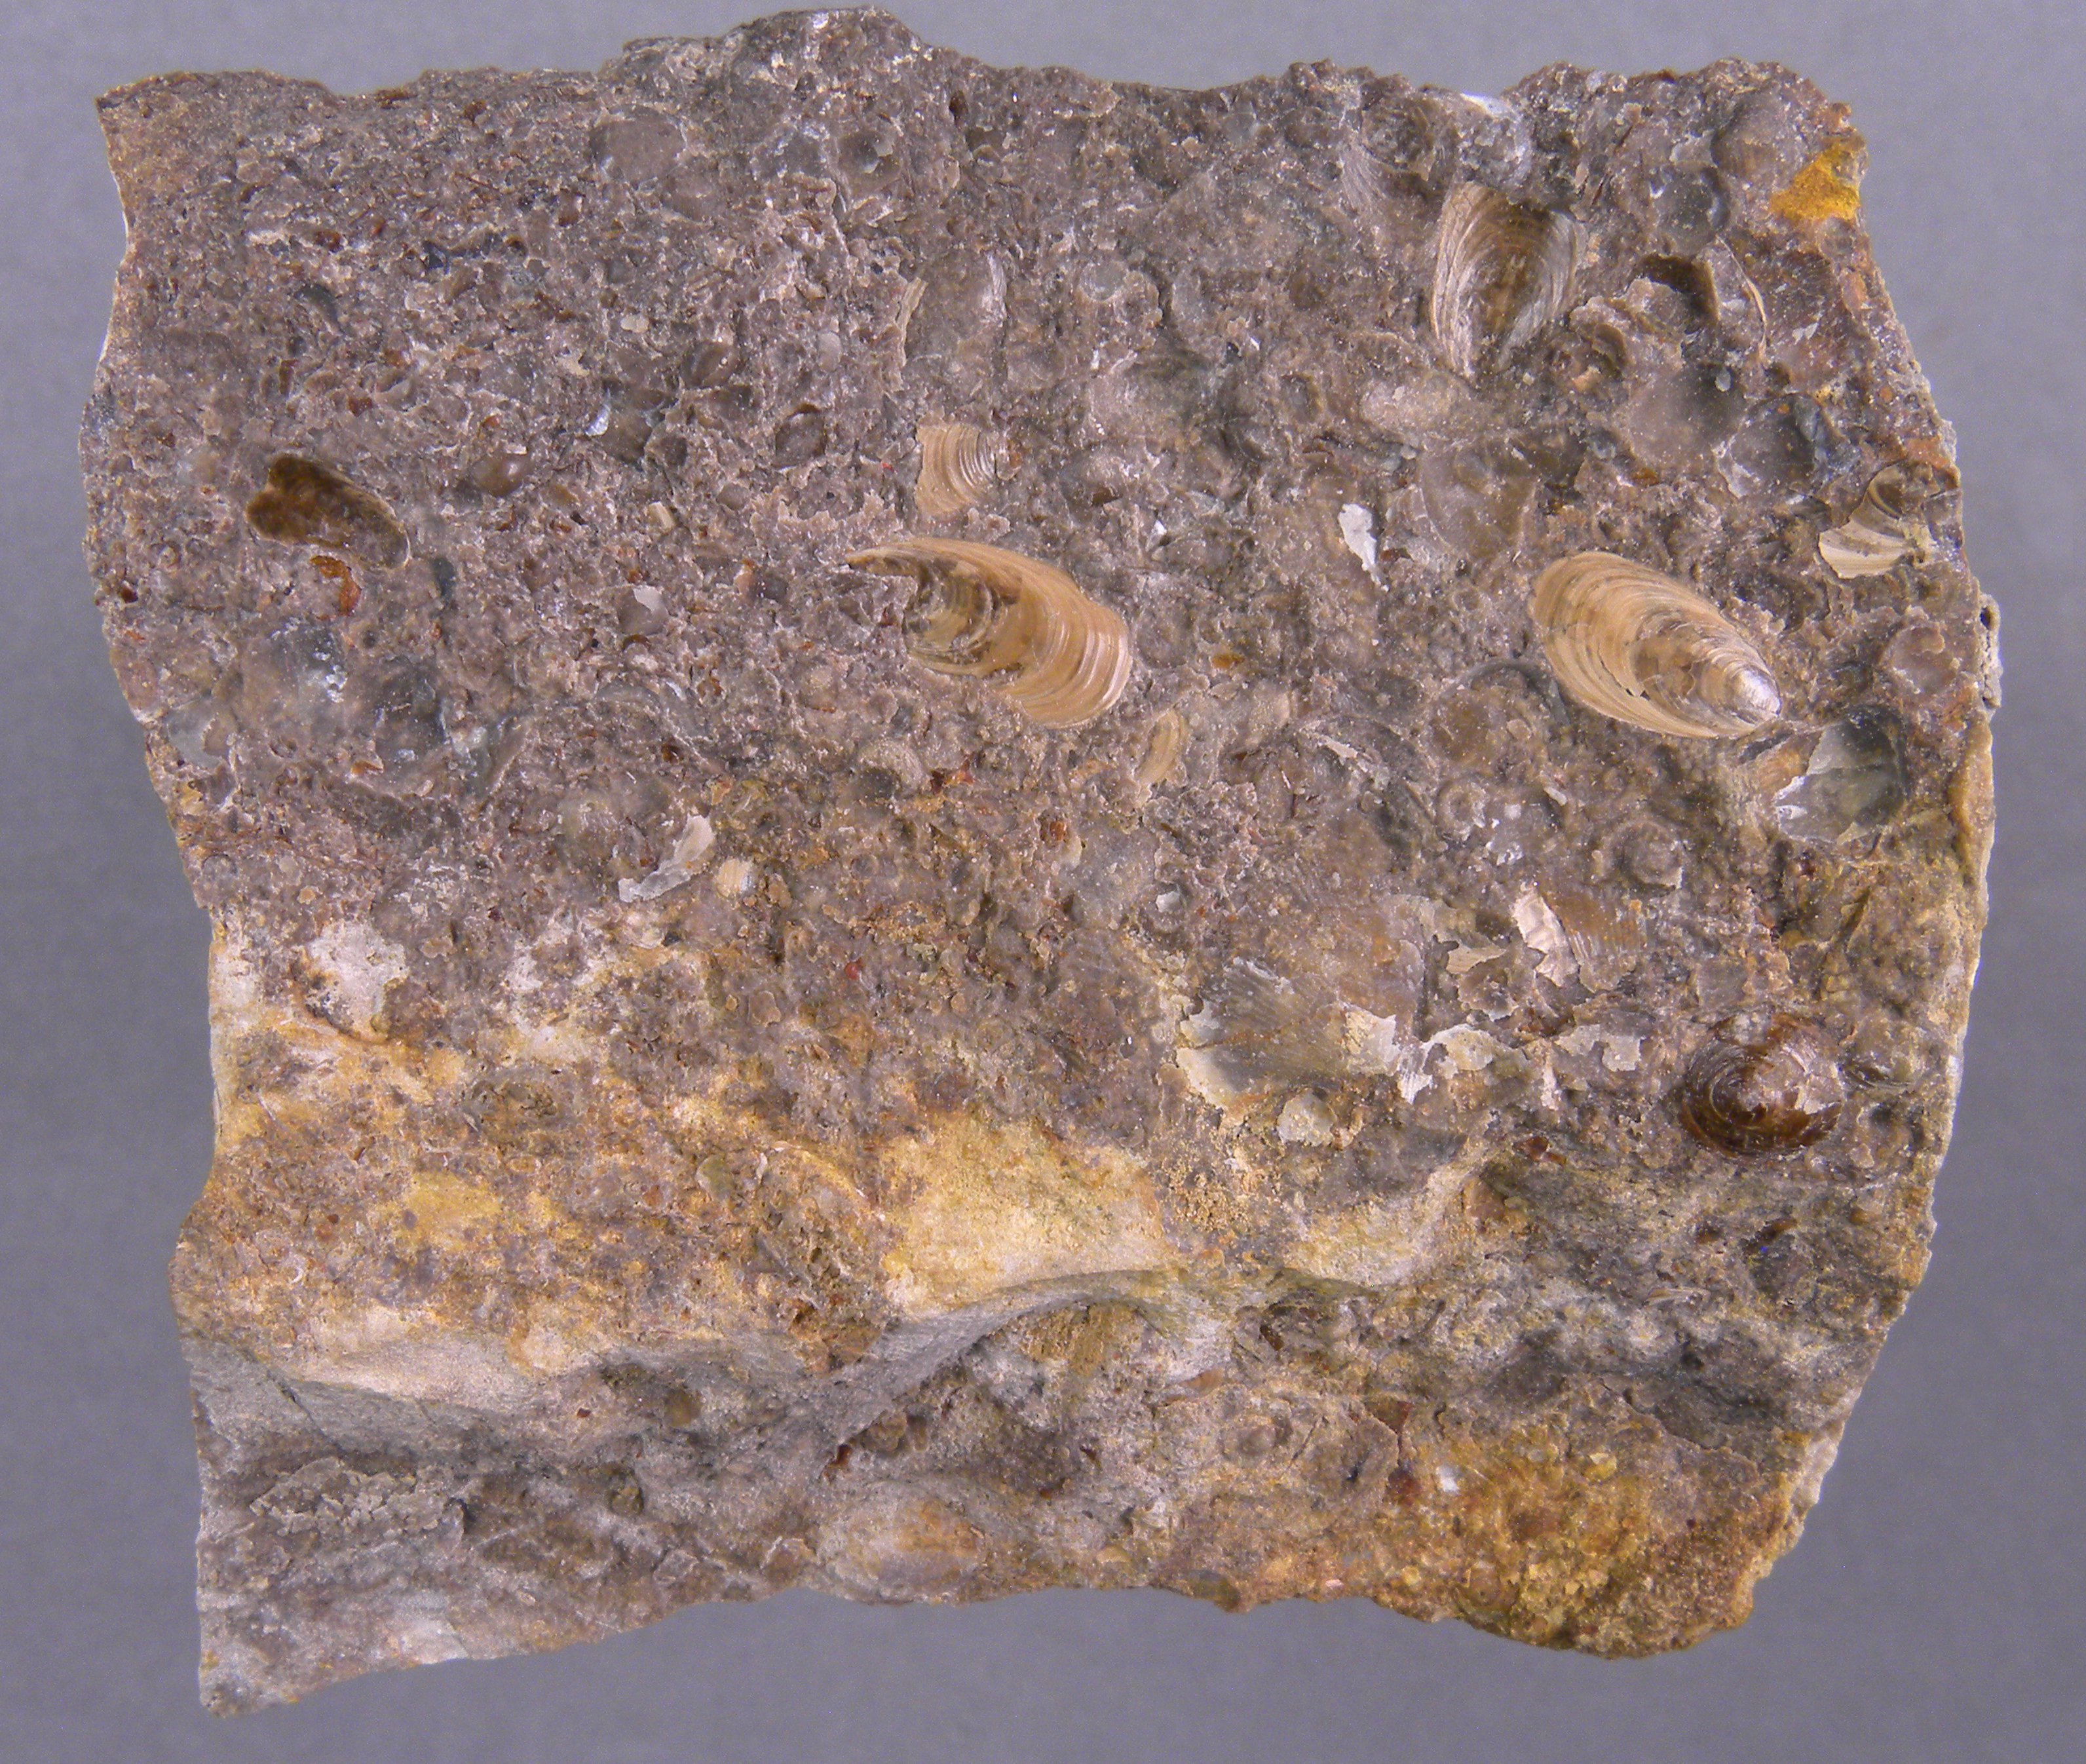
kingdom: Animalia
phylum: Brachiopoda
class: Lingulata
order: Lingulida
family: Lingulidae
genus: Lingularia
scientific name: Lingularia
